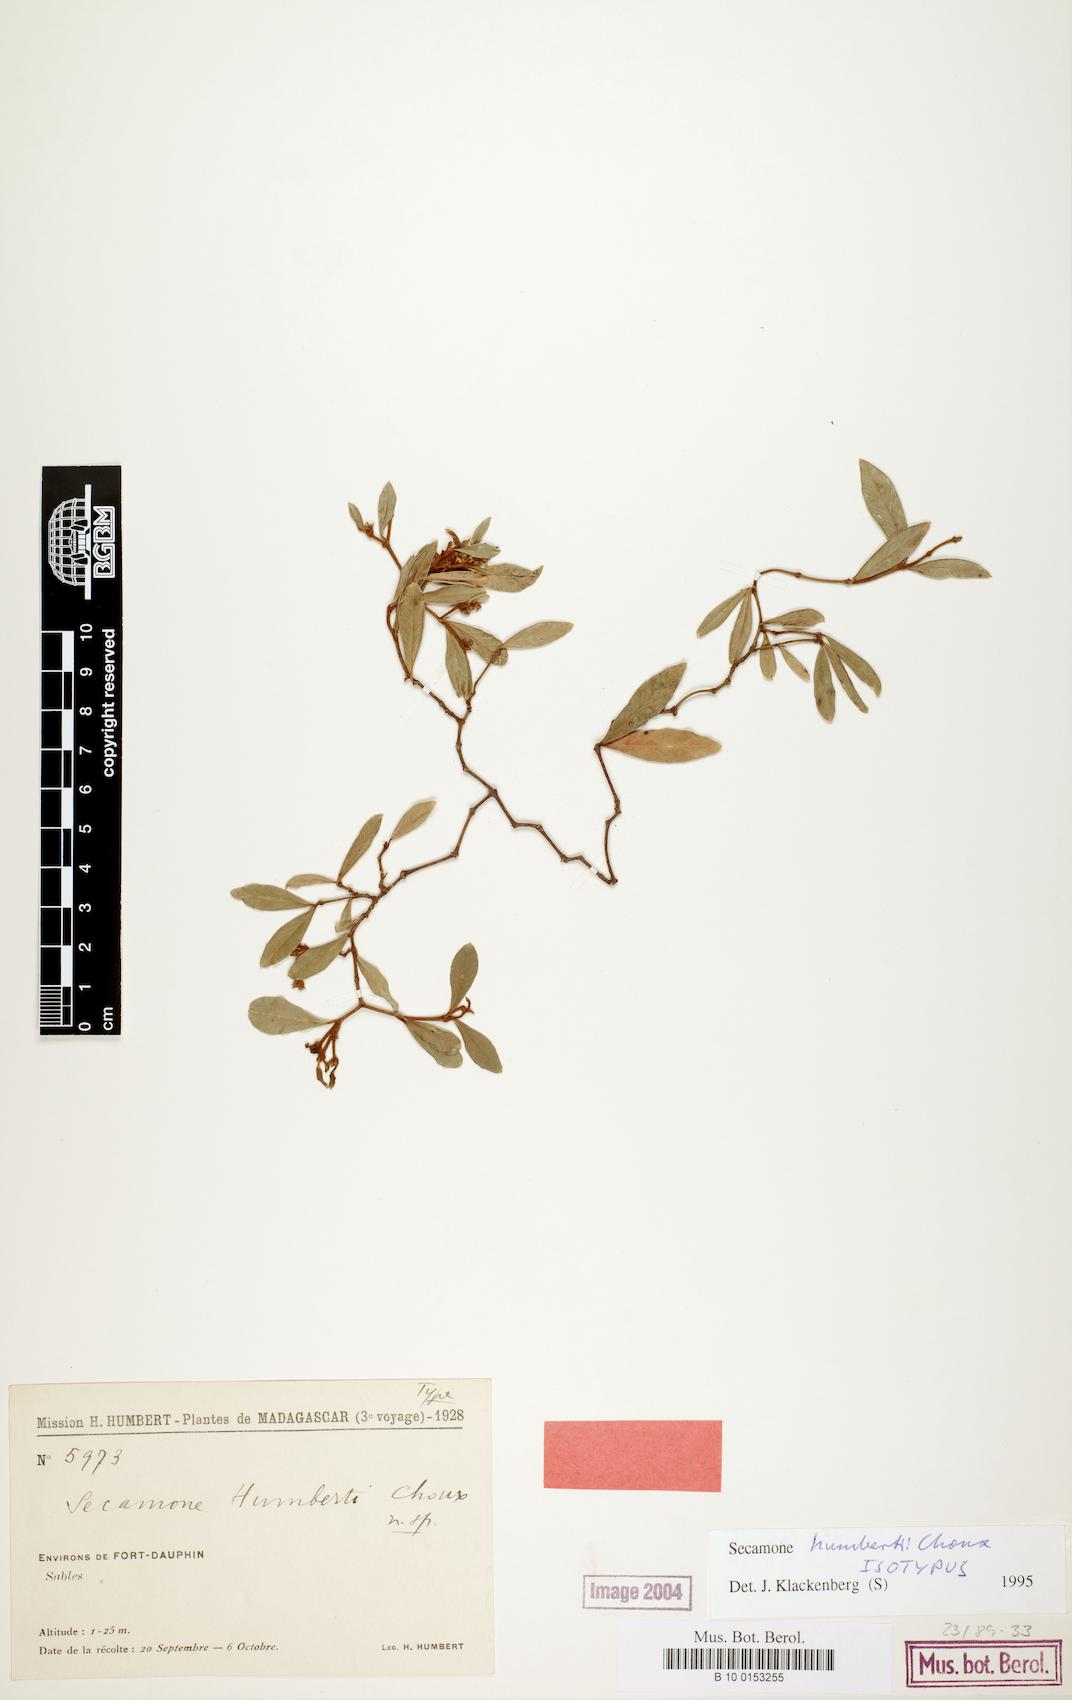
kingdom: Plantae
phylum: Tracheophyta
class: Magnoliopsida
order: Gentianales
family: Apocynaceae
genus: Secamone
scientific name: Secamone humbertii
